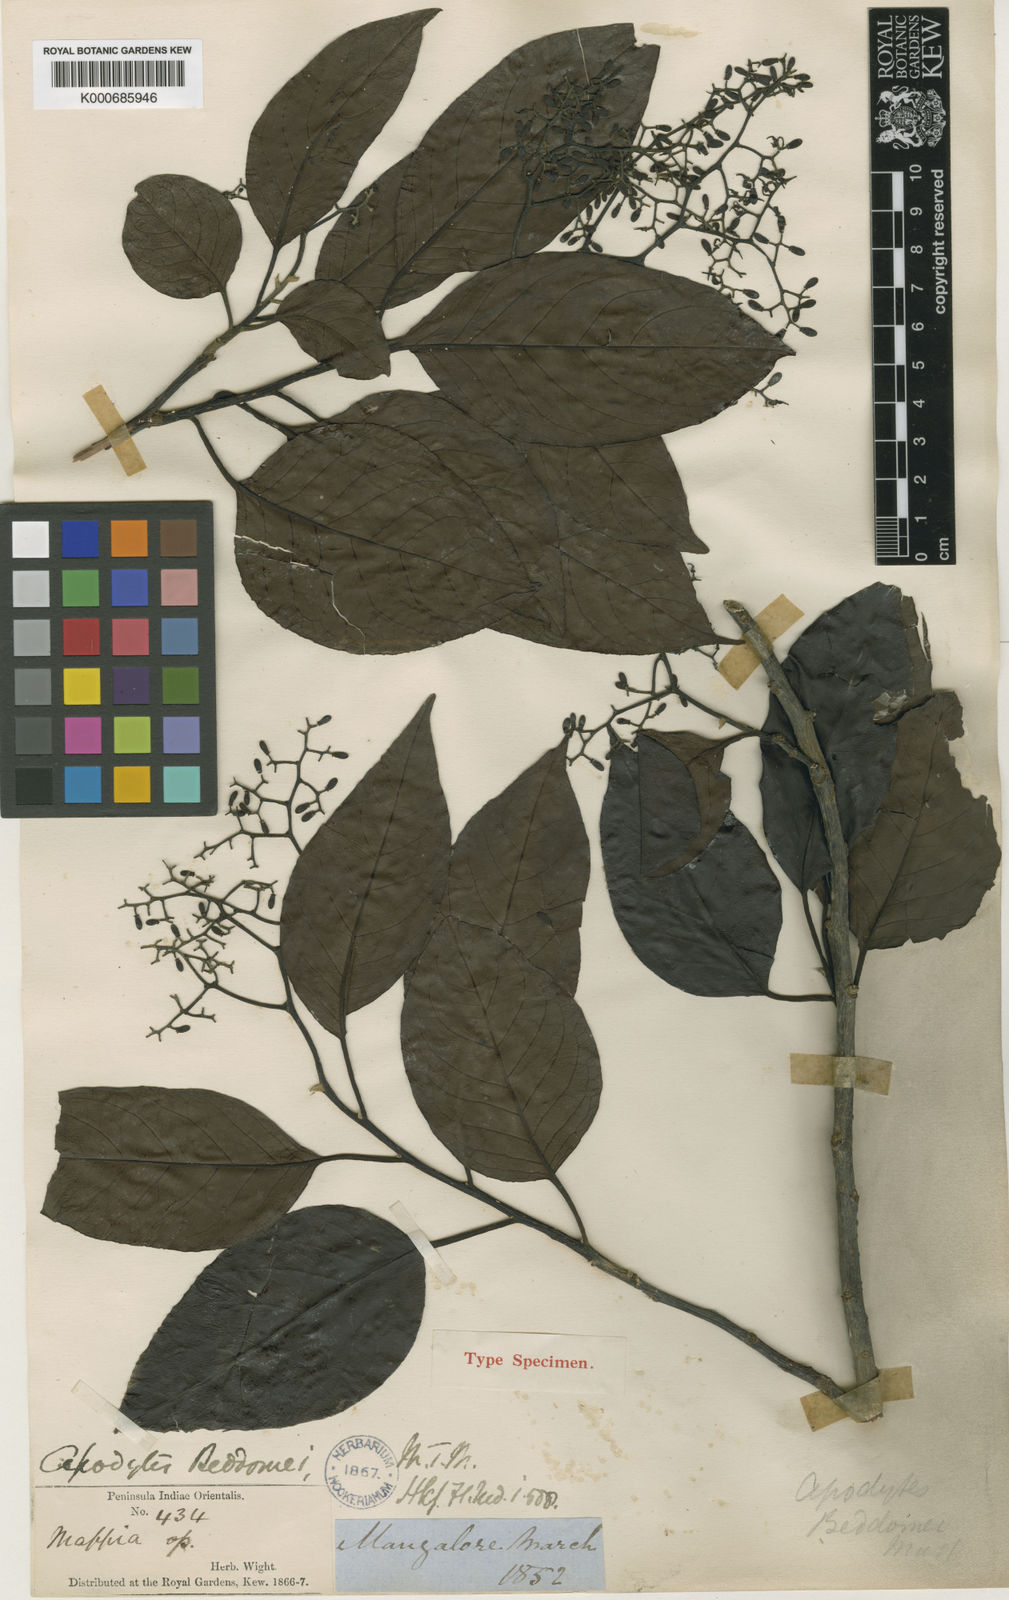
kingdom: Plantae
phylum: Tracheophyta
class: Magnoliopsida
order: Metteniusales
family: Metteniusaceae
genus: Apodytes
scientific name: Apodytes dimidiata
